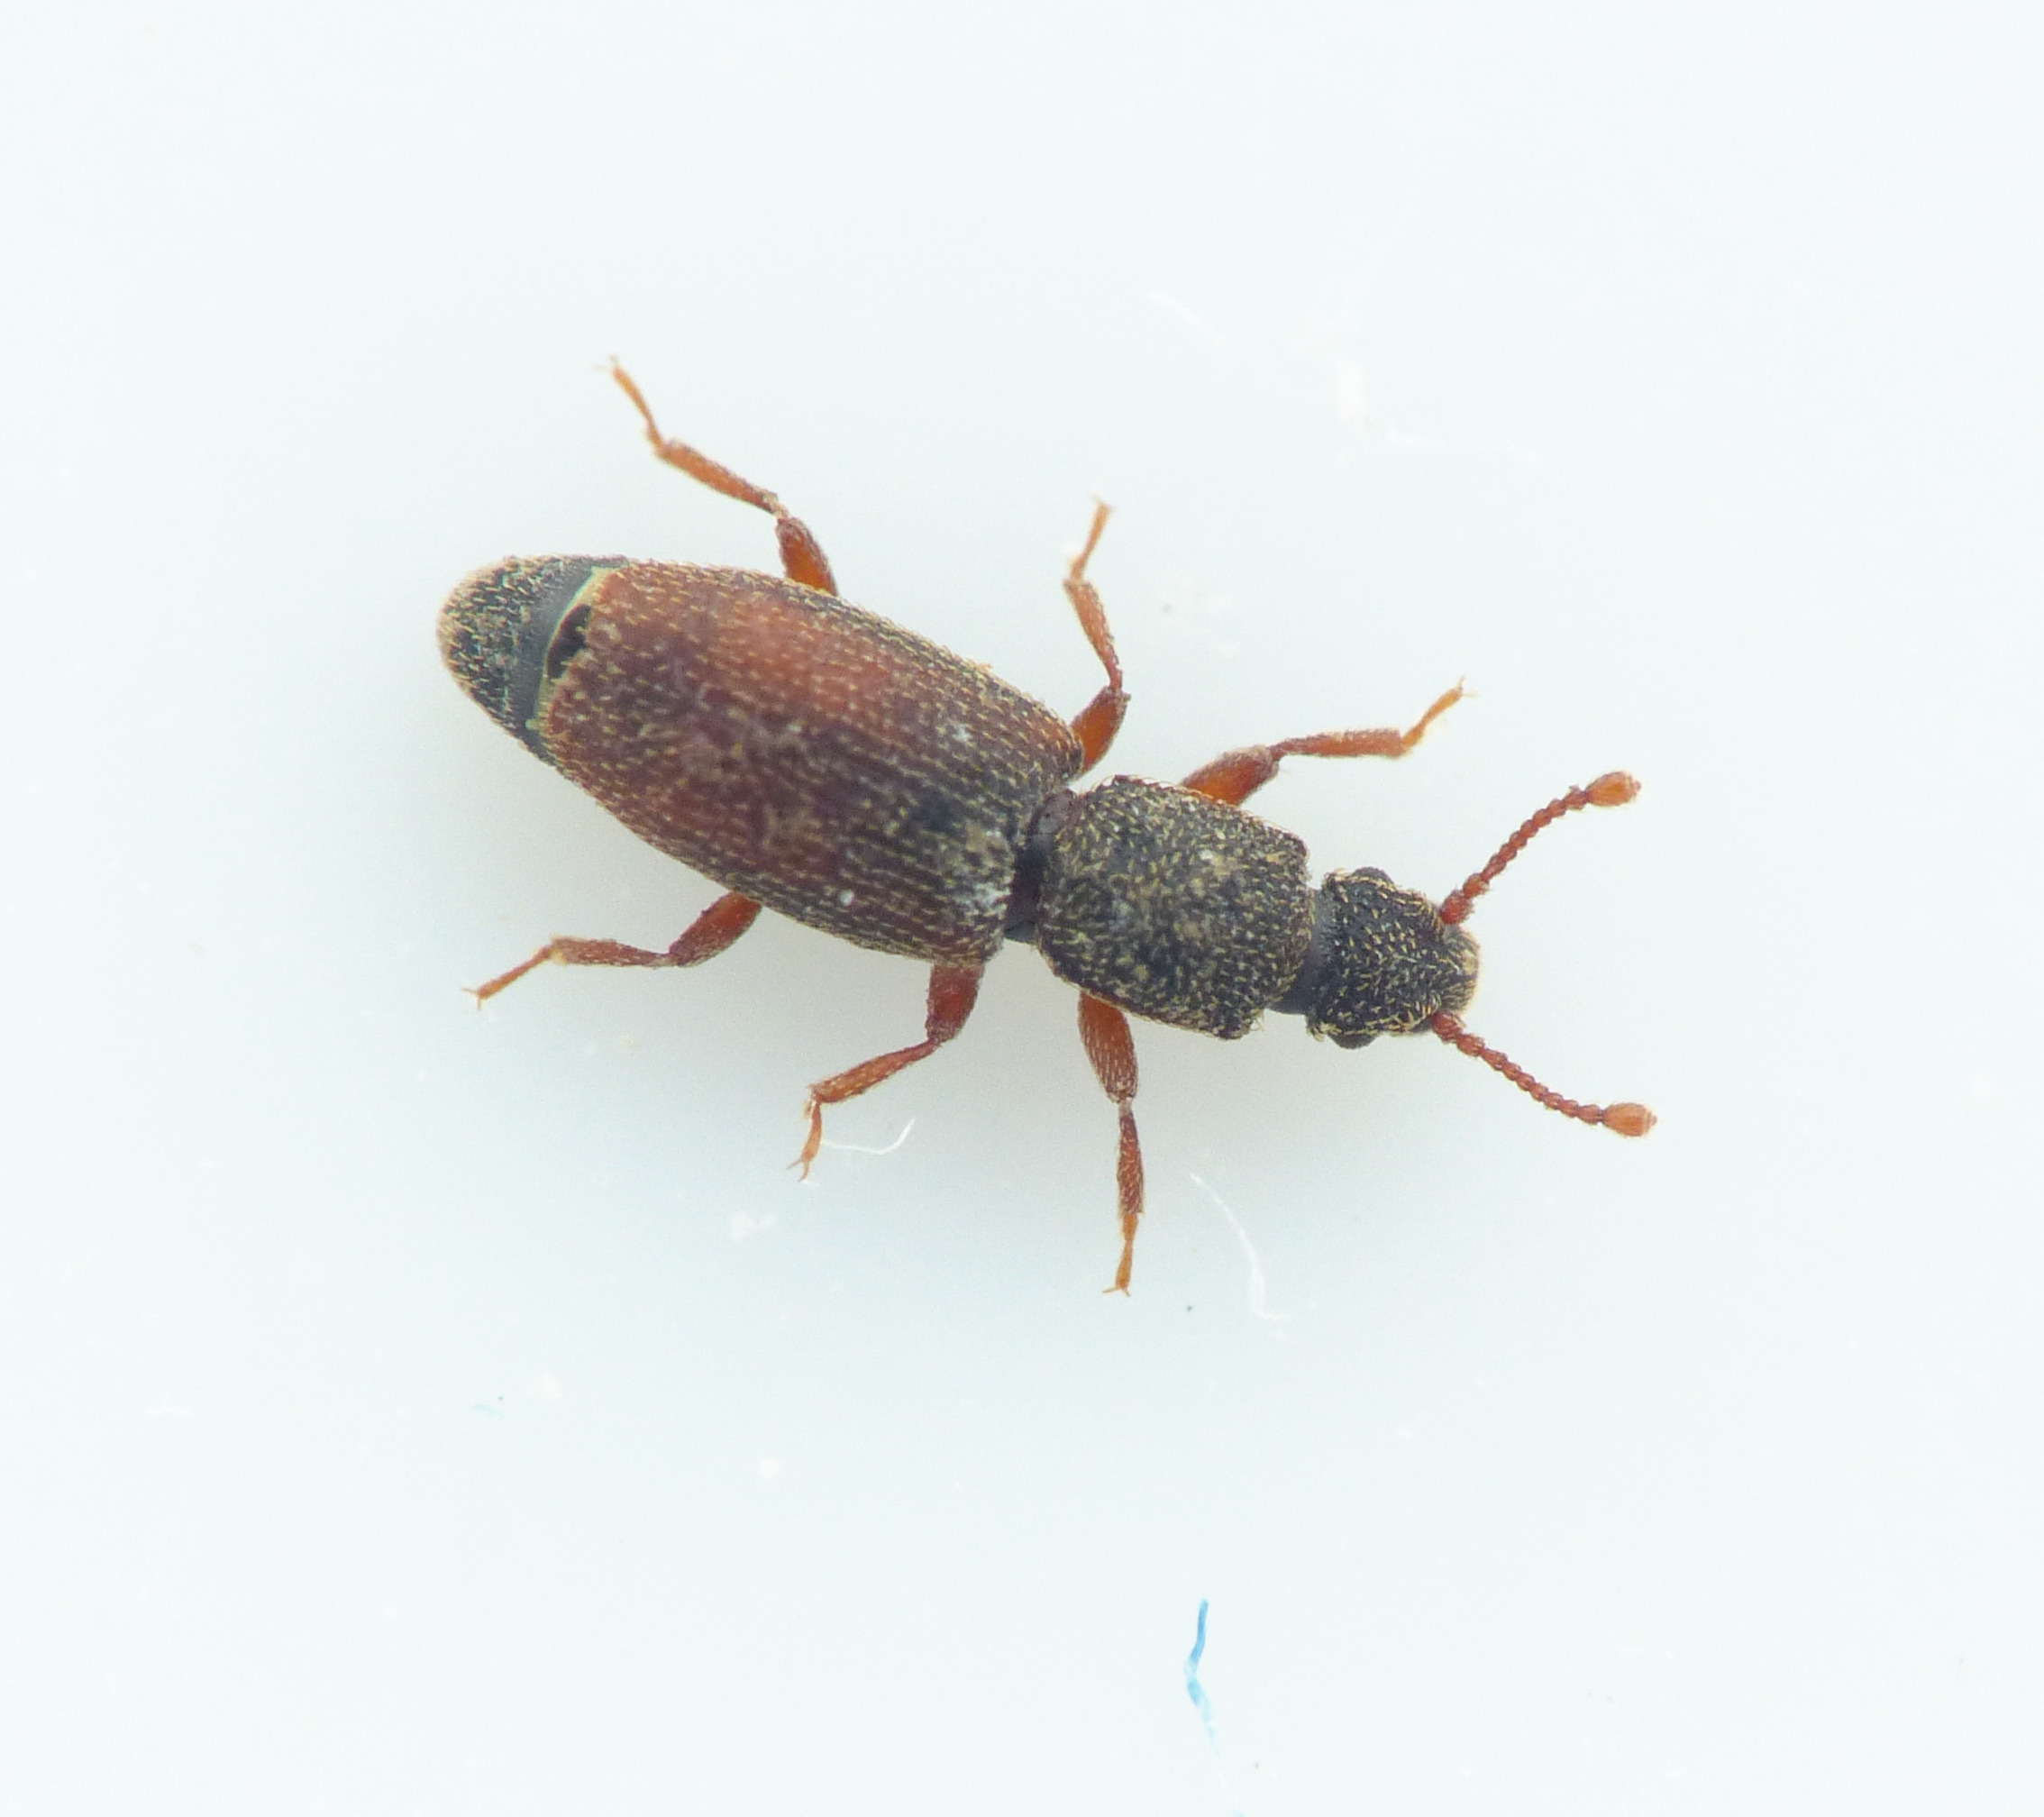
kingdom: Animalia
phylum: Arthropoda
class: Insecta
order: Coleoptera
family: Monotomidae
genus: Monotoma
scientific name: Monotoma bicolor
